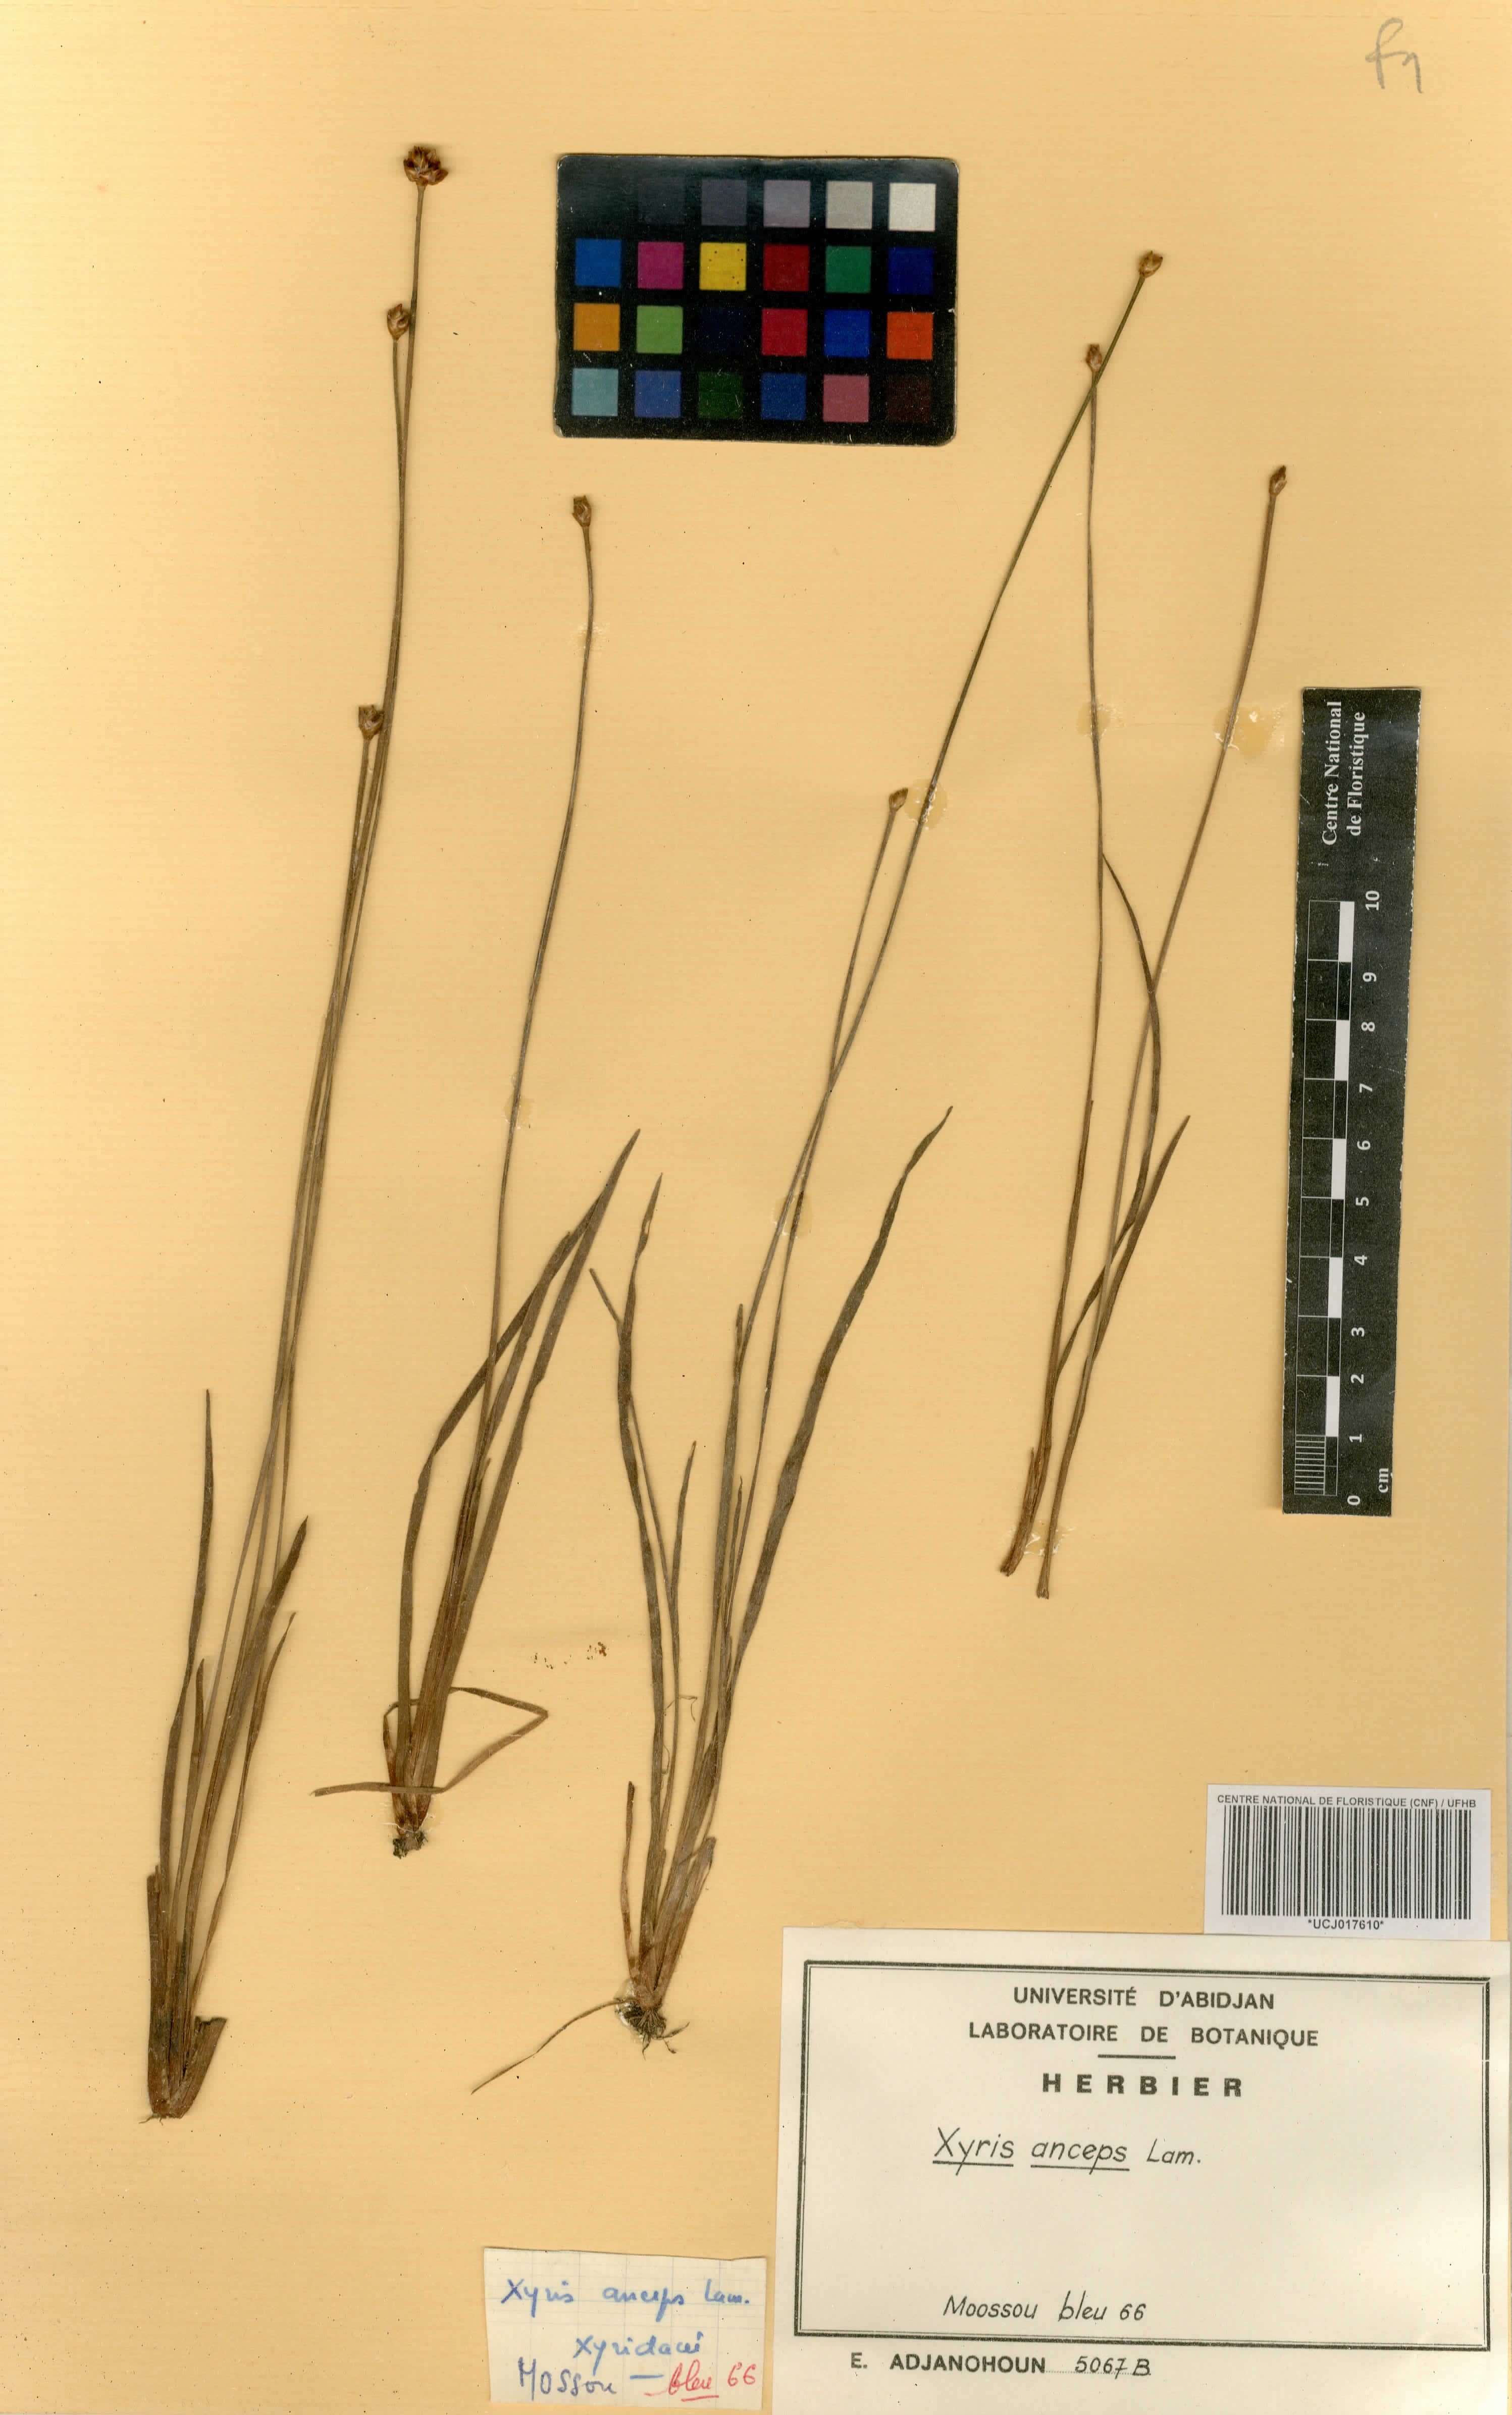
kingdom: Plantae
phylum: Tracheophyta
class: Liliopsida
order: Poales
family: Xyridaceae
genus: Xyris
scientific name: Xyris anceps
